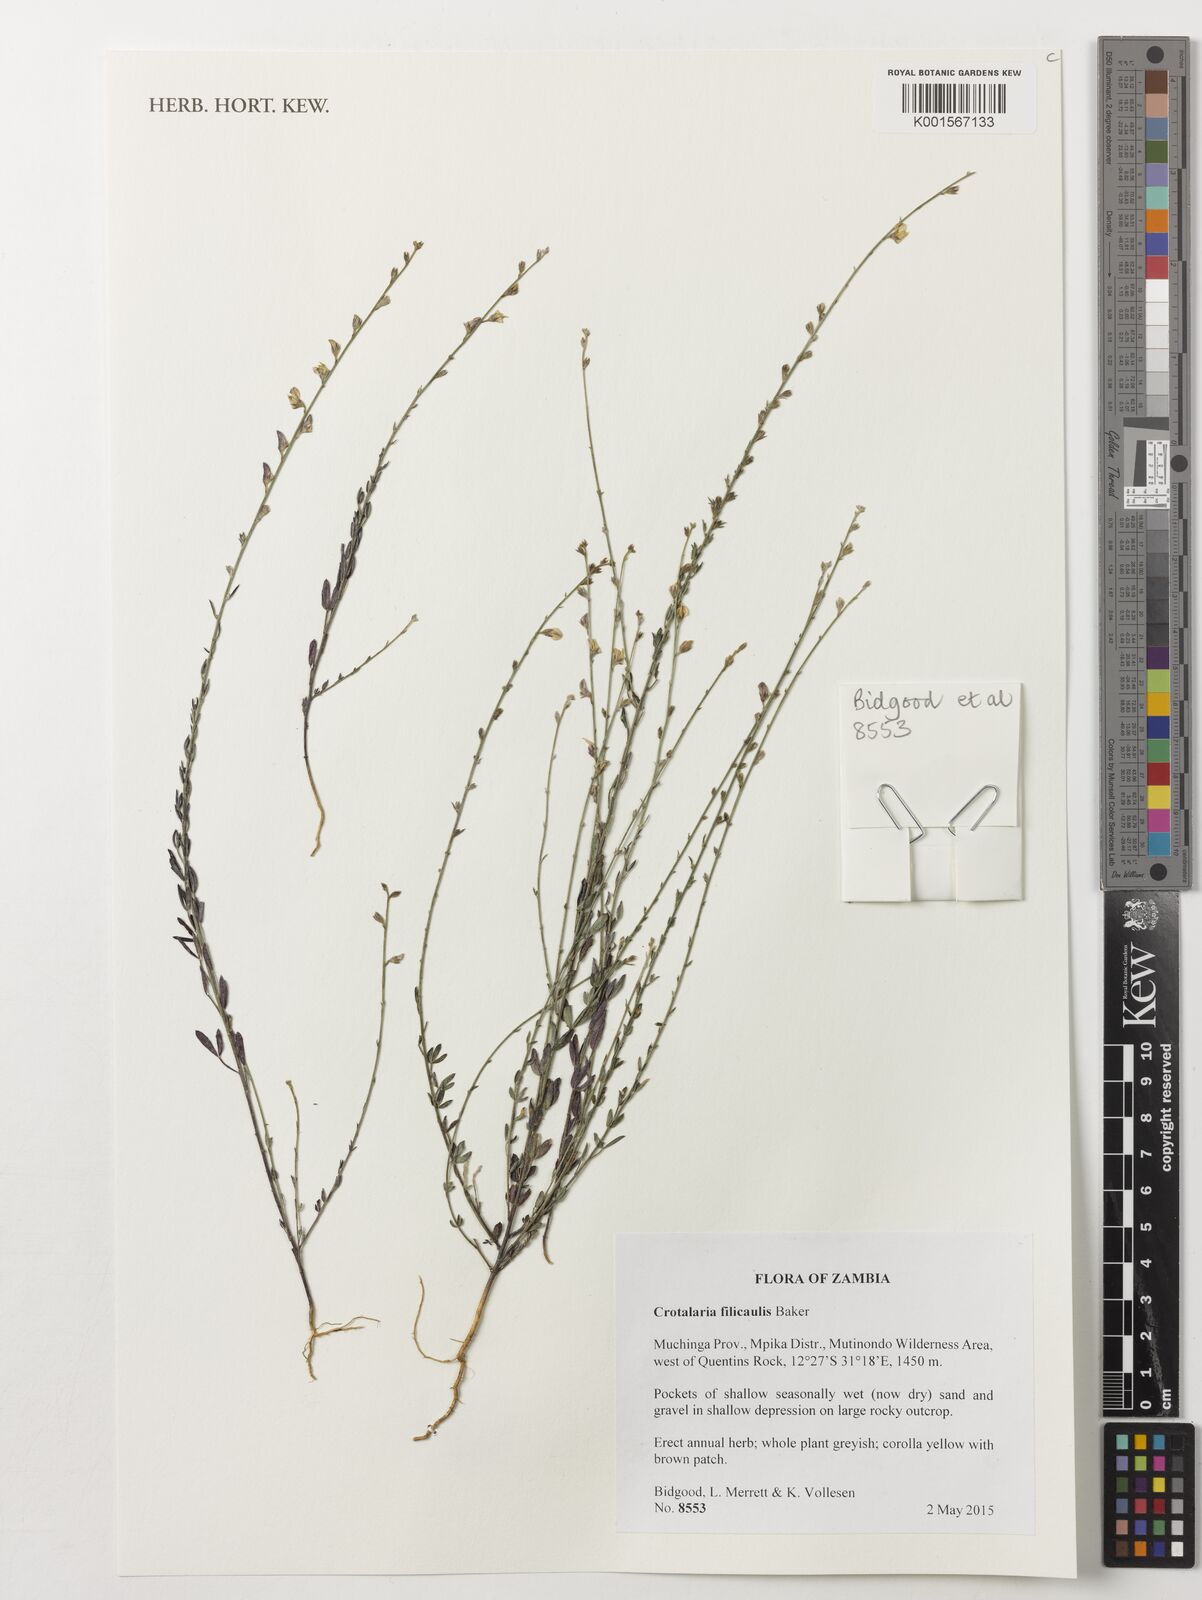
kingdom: Plantae
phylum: Tracheophyta
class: Magnoliopsida
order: Fabales
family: Fabaceae
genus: Crotalaria
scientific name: Crotalaria filicaulis
